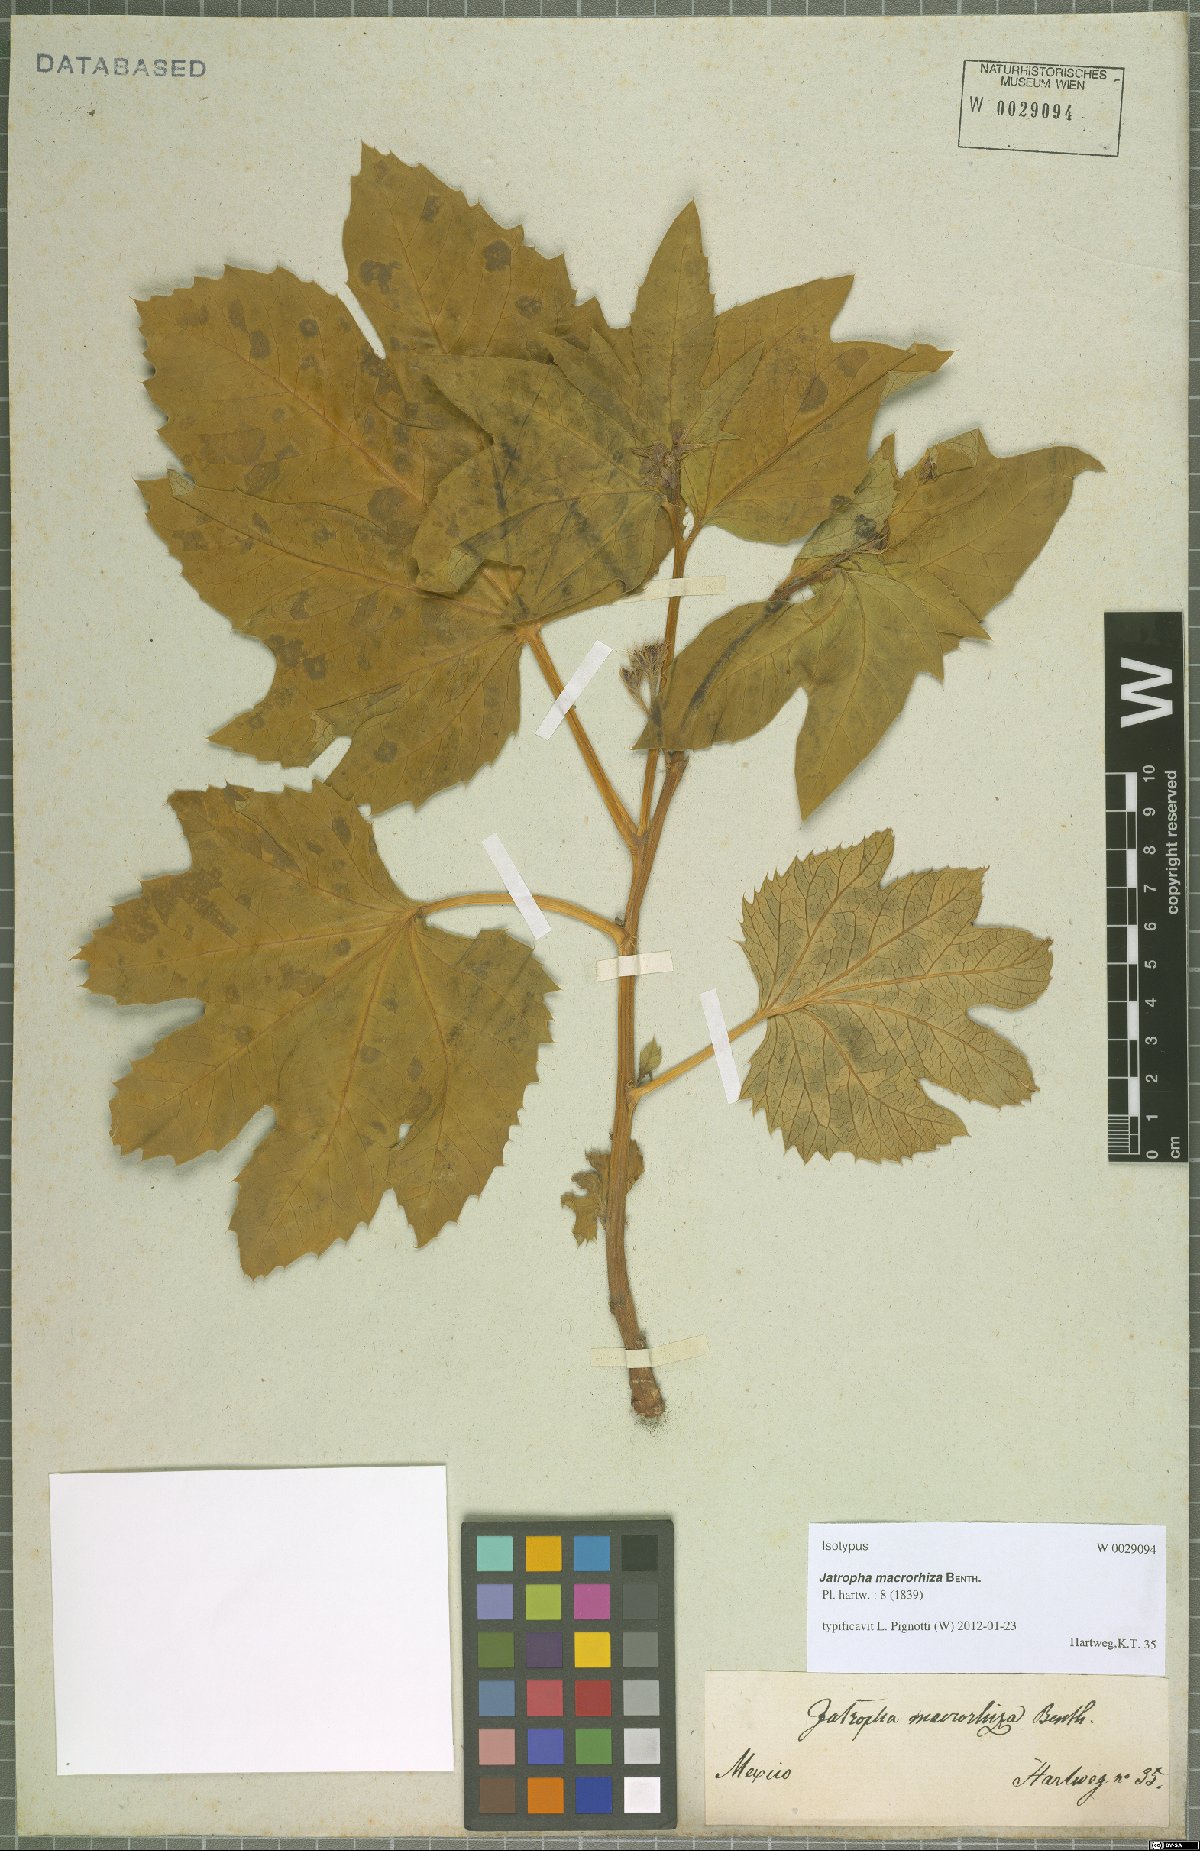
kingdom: Plantae
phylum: Tracheophyta
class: Magnoliopsida
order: Malpighiales
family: Euphorbiaceae
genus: Jatropha
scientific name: Jatropha macrorhiza
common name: Ragged nettlespurge
